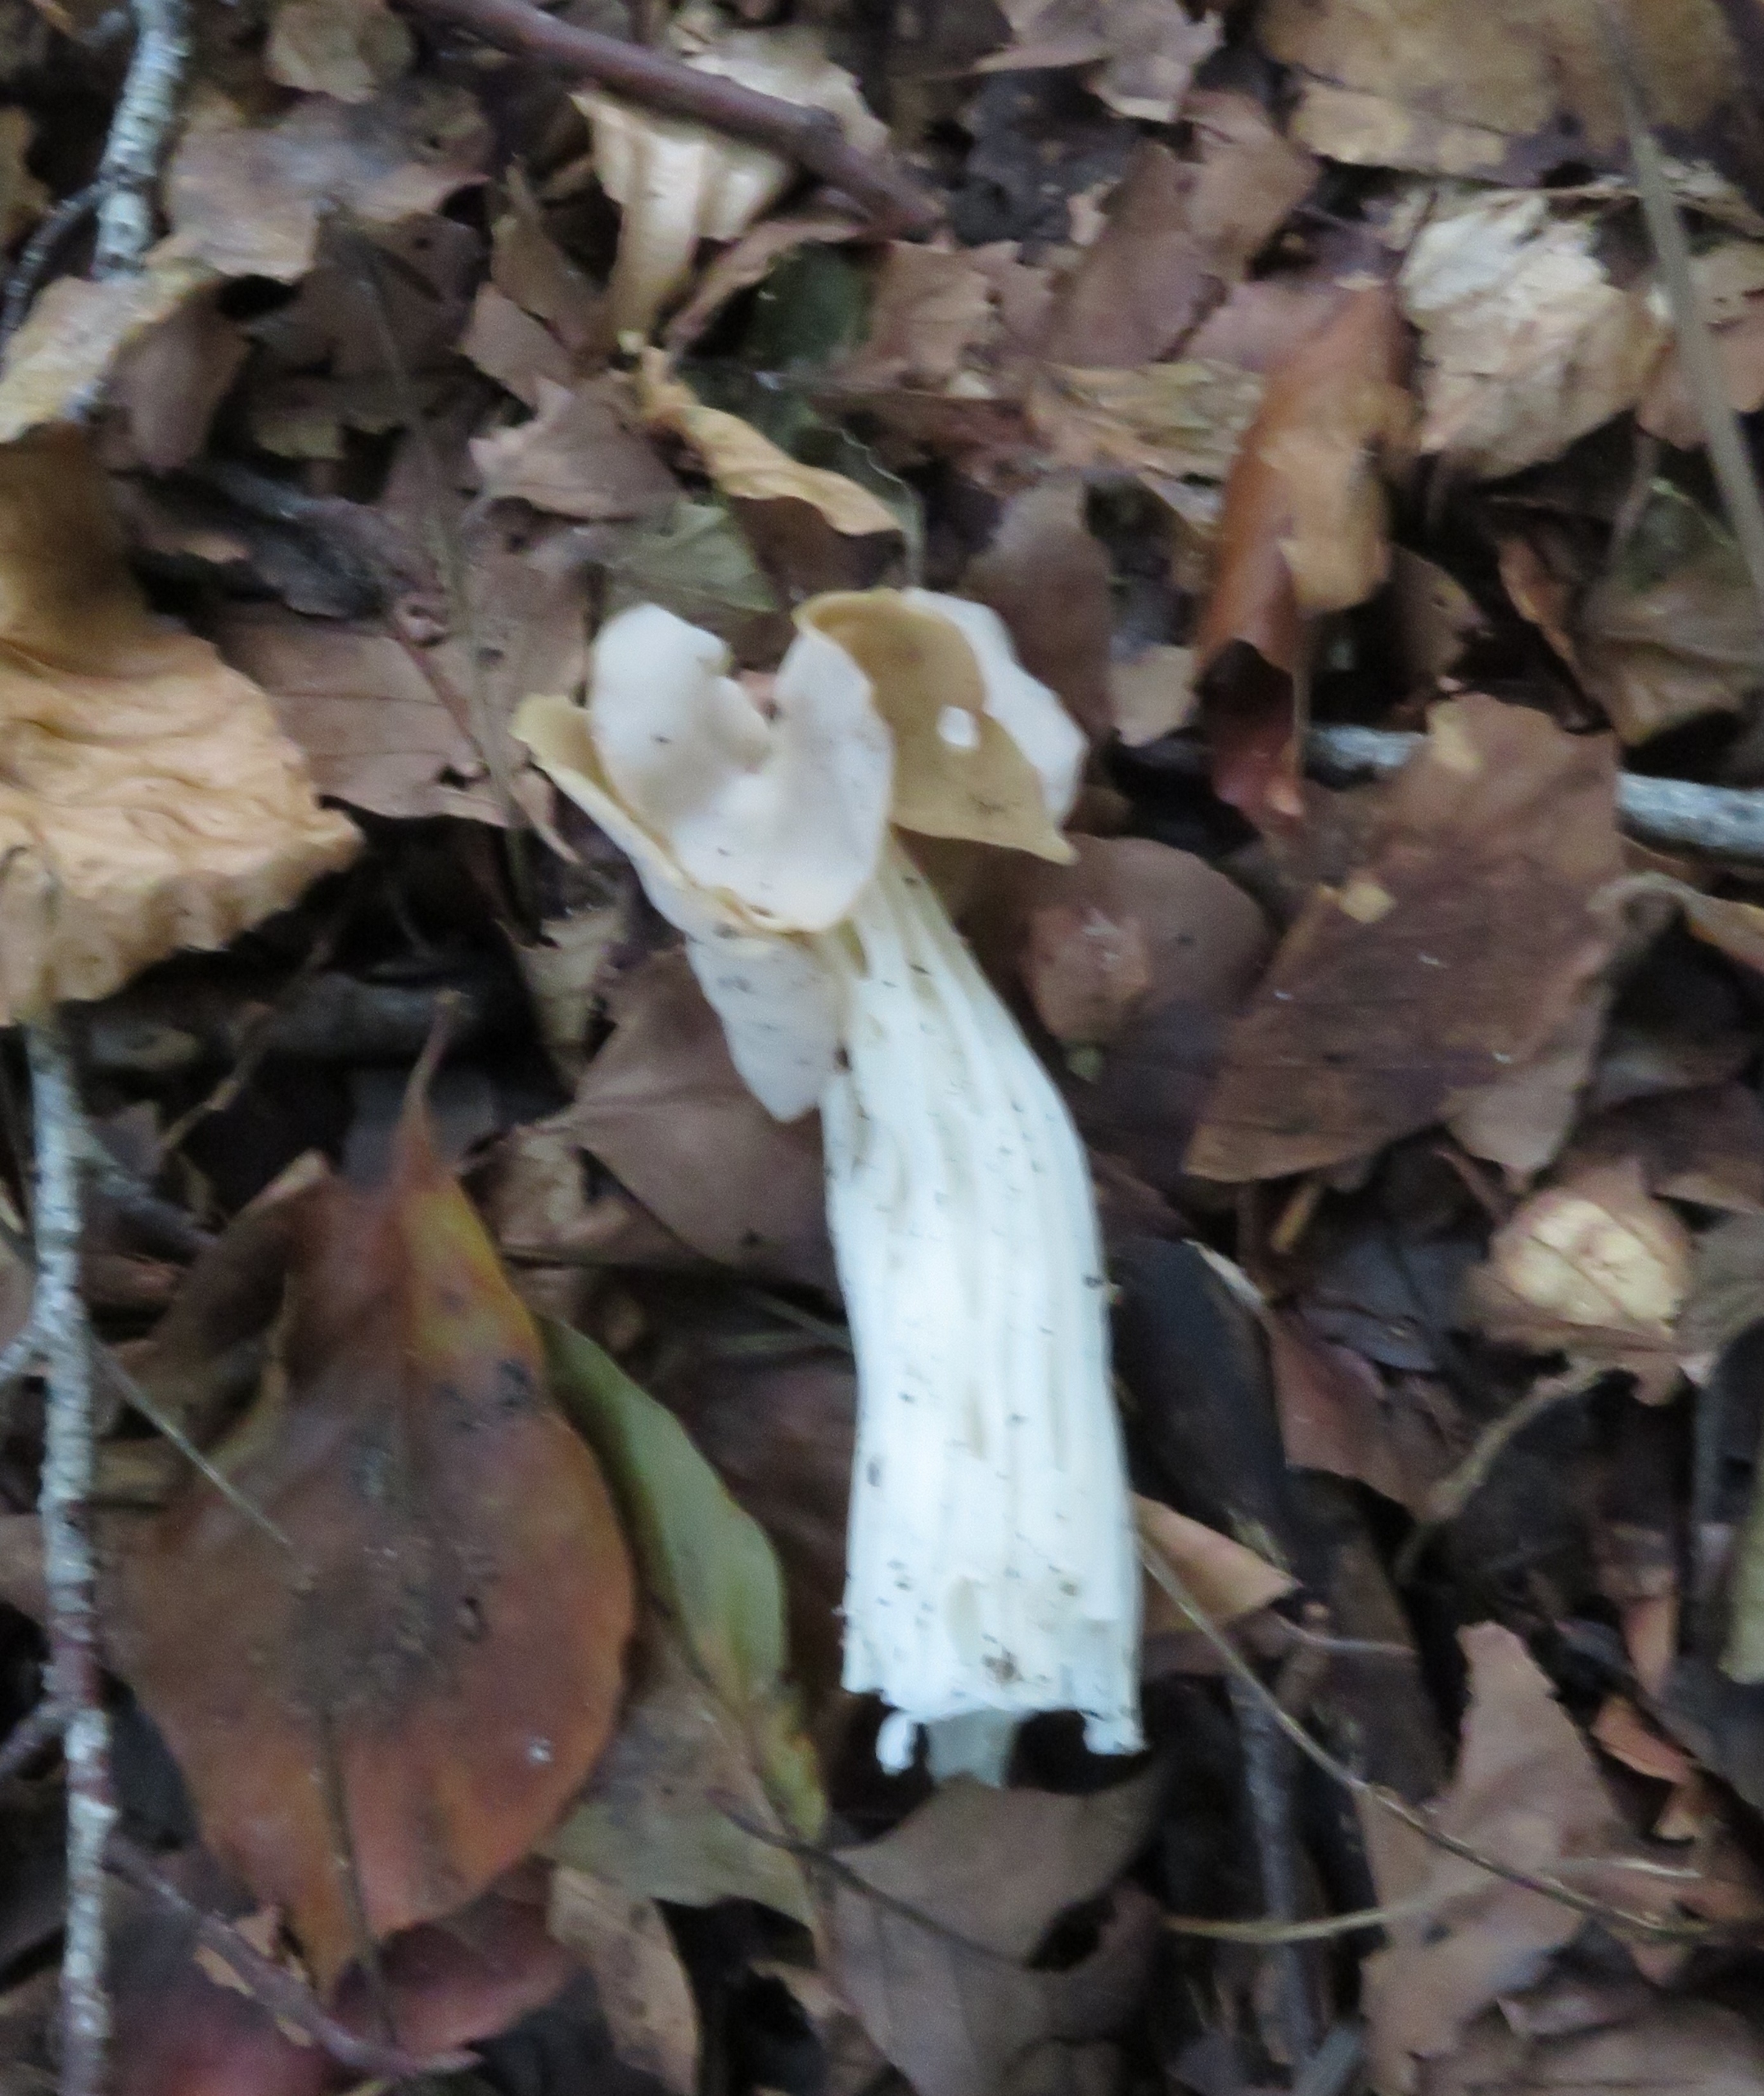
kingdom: Fungi
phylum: Ascomycota
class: Pezizomycetes
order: Pezizales
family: Helvellaceae
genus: Helvella
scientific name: Helvella crispa
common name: Kruset foldhat
